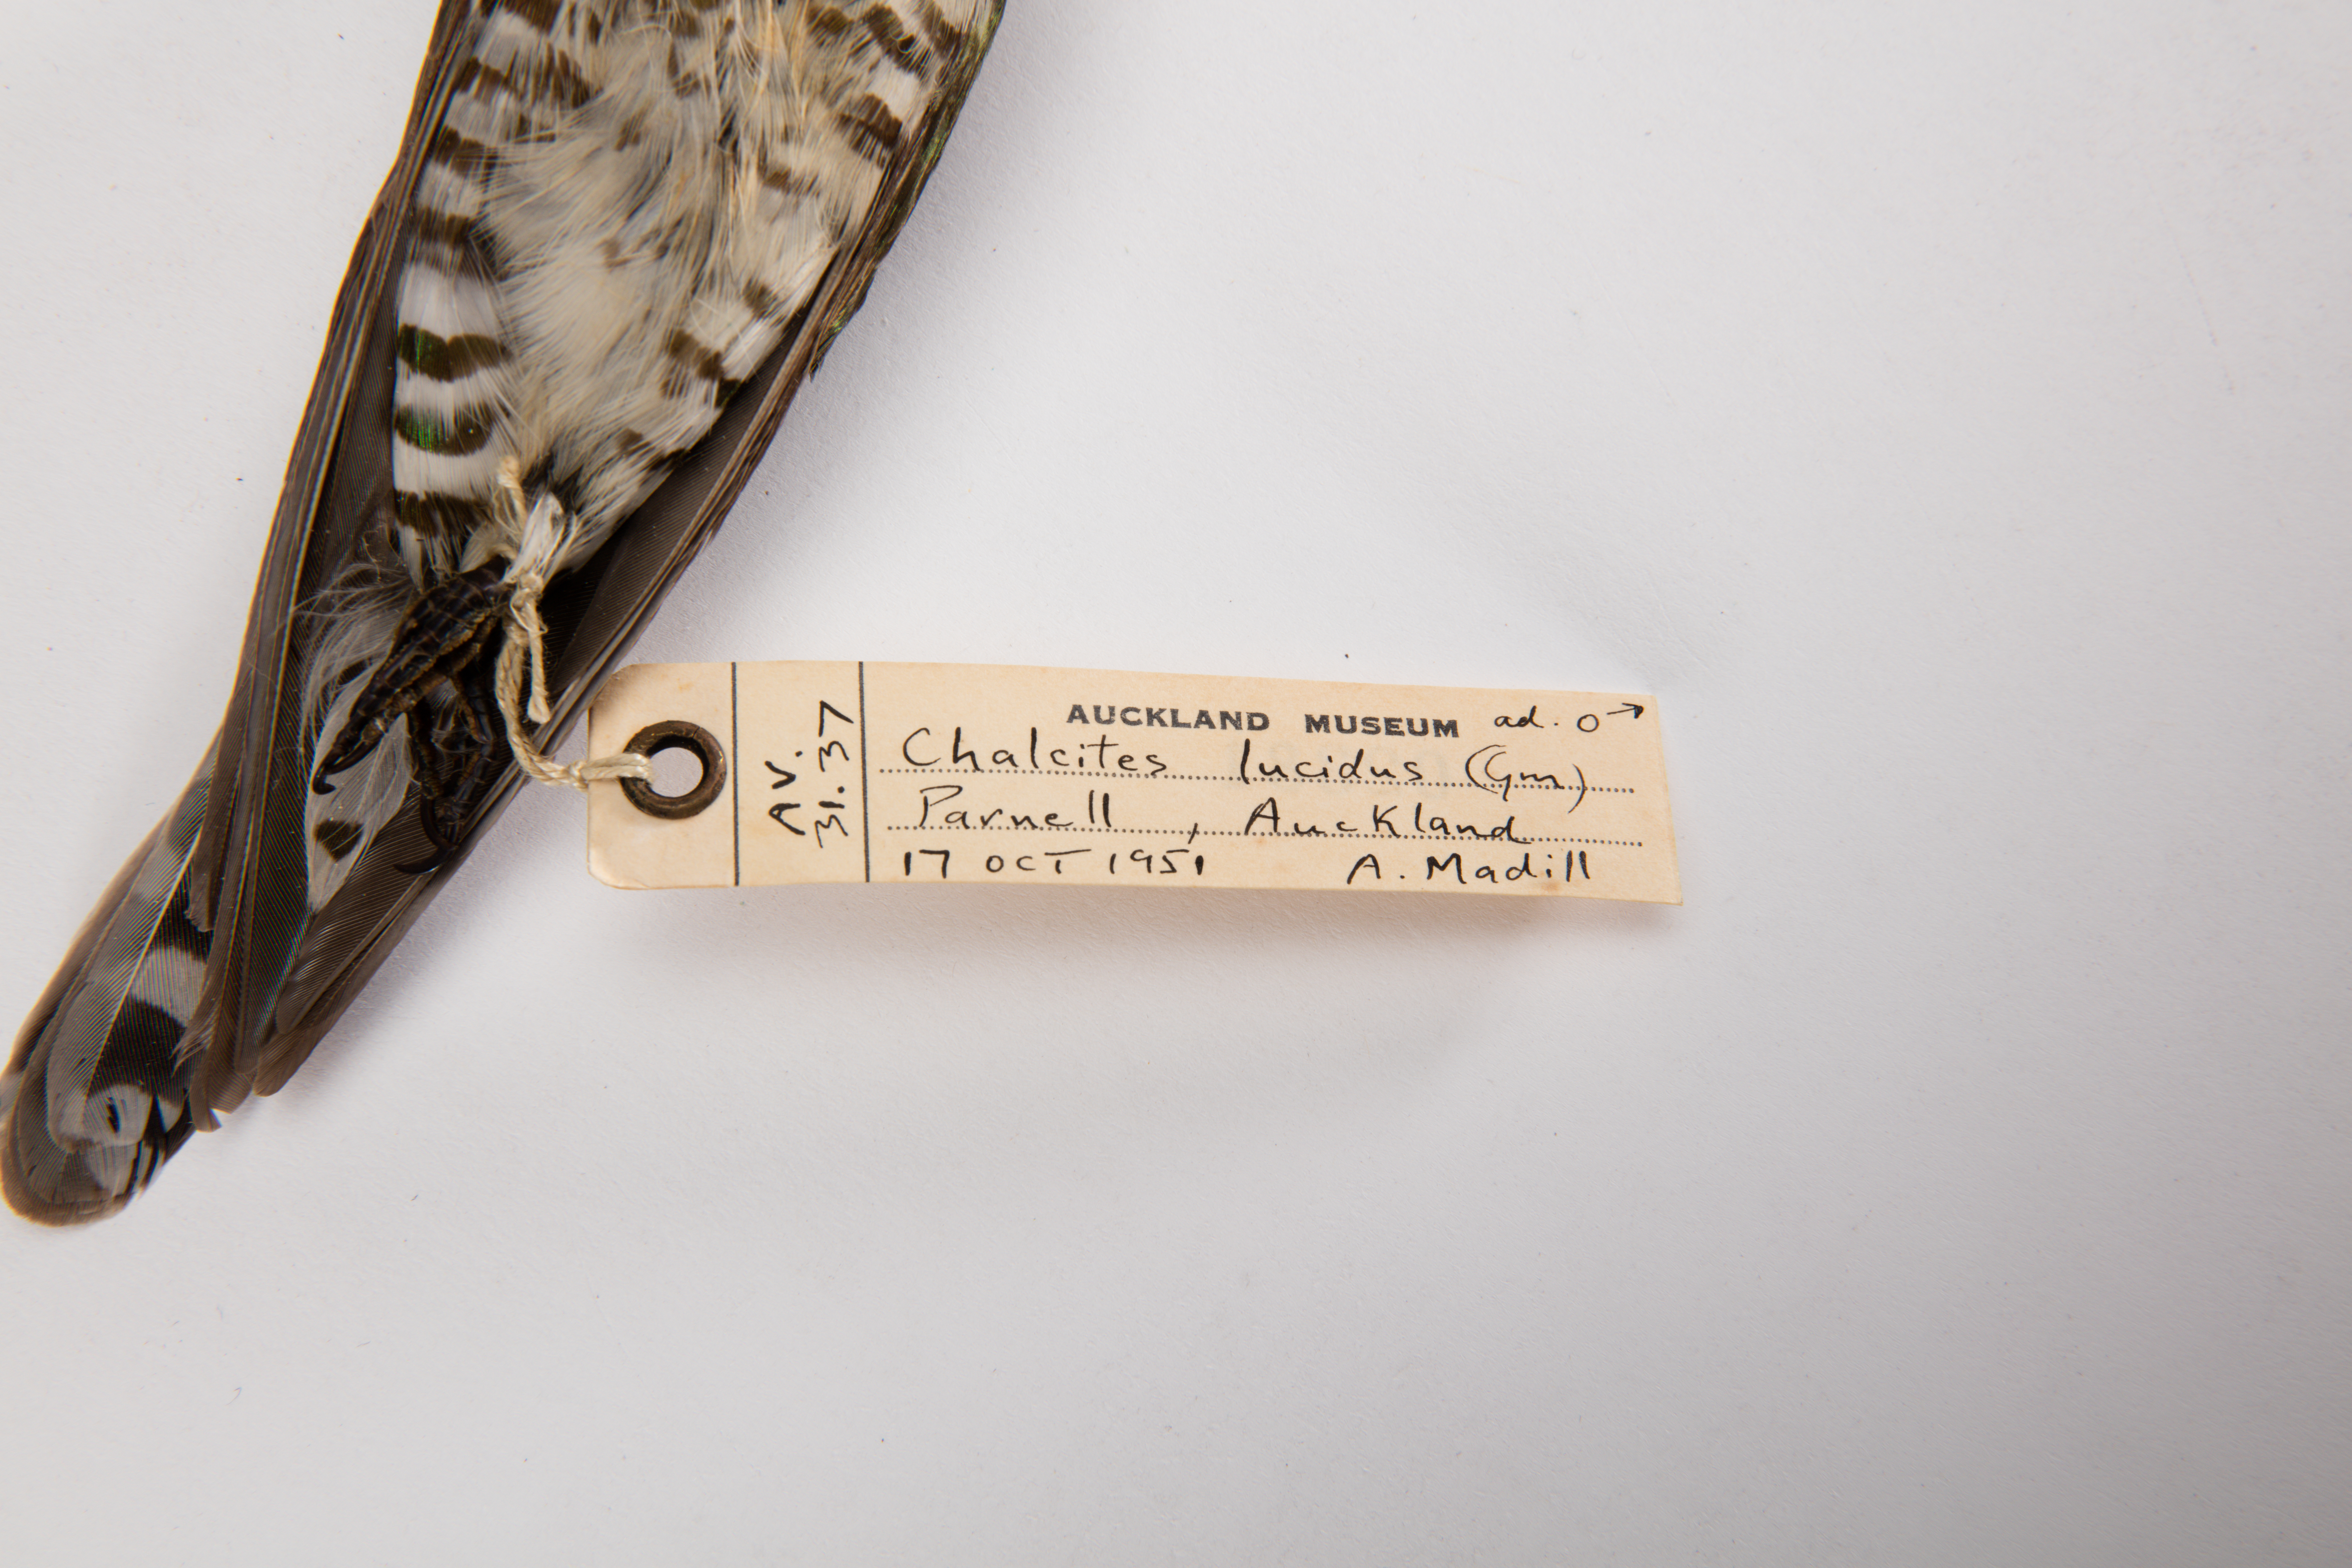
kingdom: Animalia
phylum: Chordata
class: Aves
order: Cuculiformes
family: Cuculidae
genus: Chrysococcyx
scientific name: Chrysococcyx lucidus
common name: Shining bronze cuckoo
